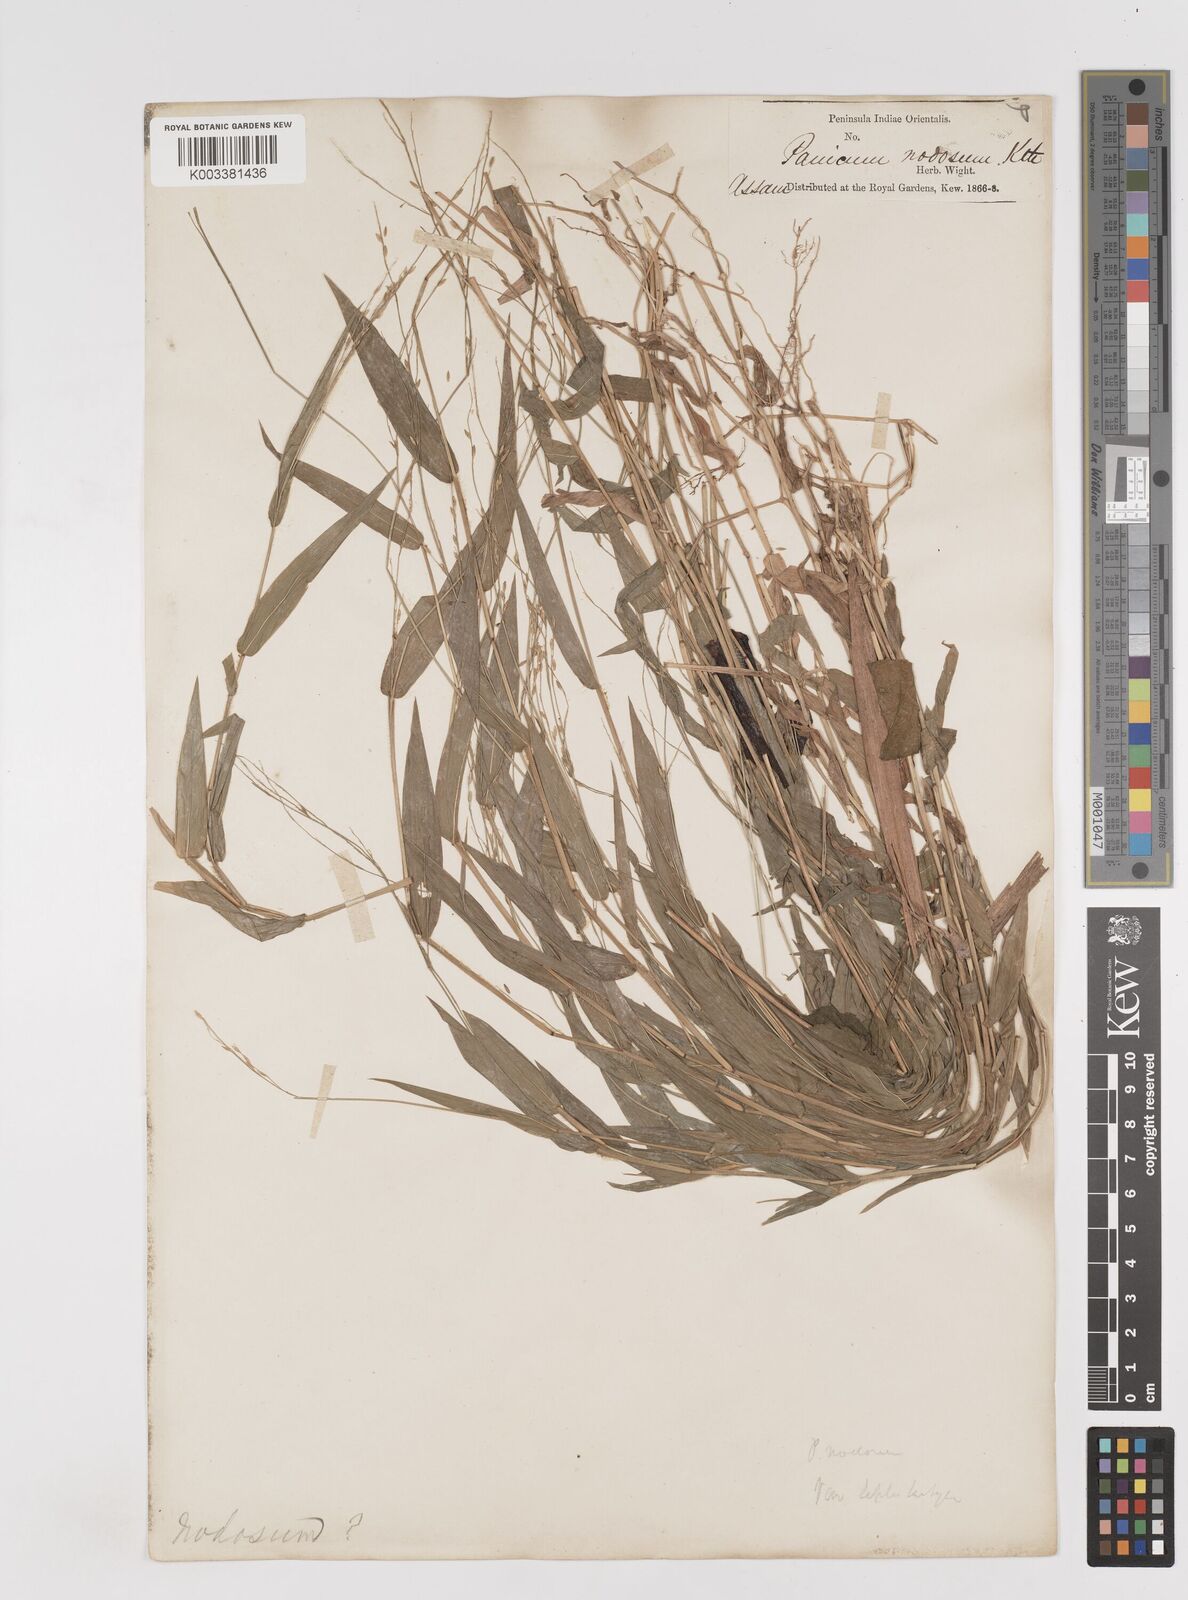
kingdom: Plantae
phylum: Tracheophyta
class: Liliopsida
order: Poales
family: Poaceae
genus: Ottochloa
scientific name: Ottochloa nodosa
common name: Slender-panic grass
